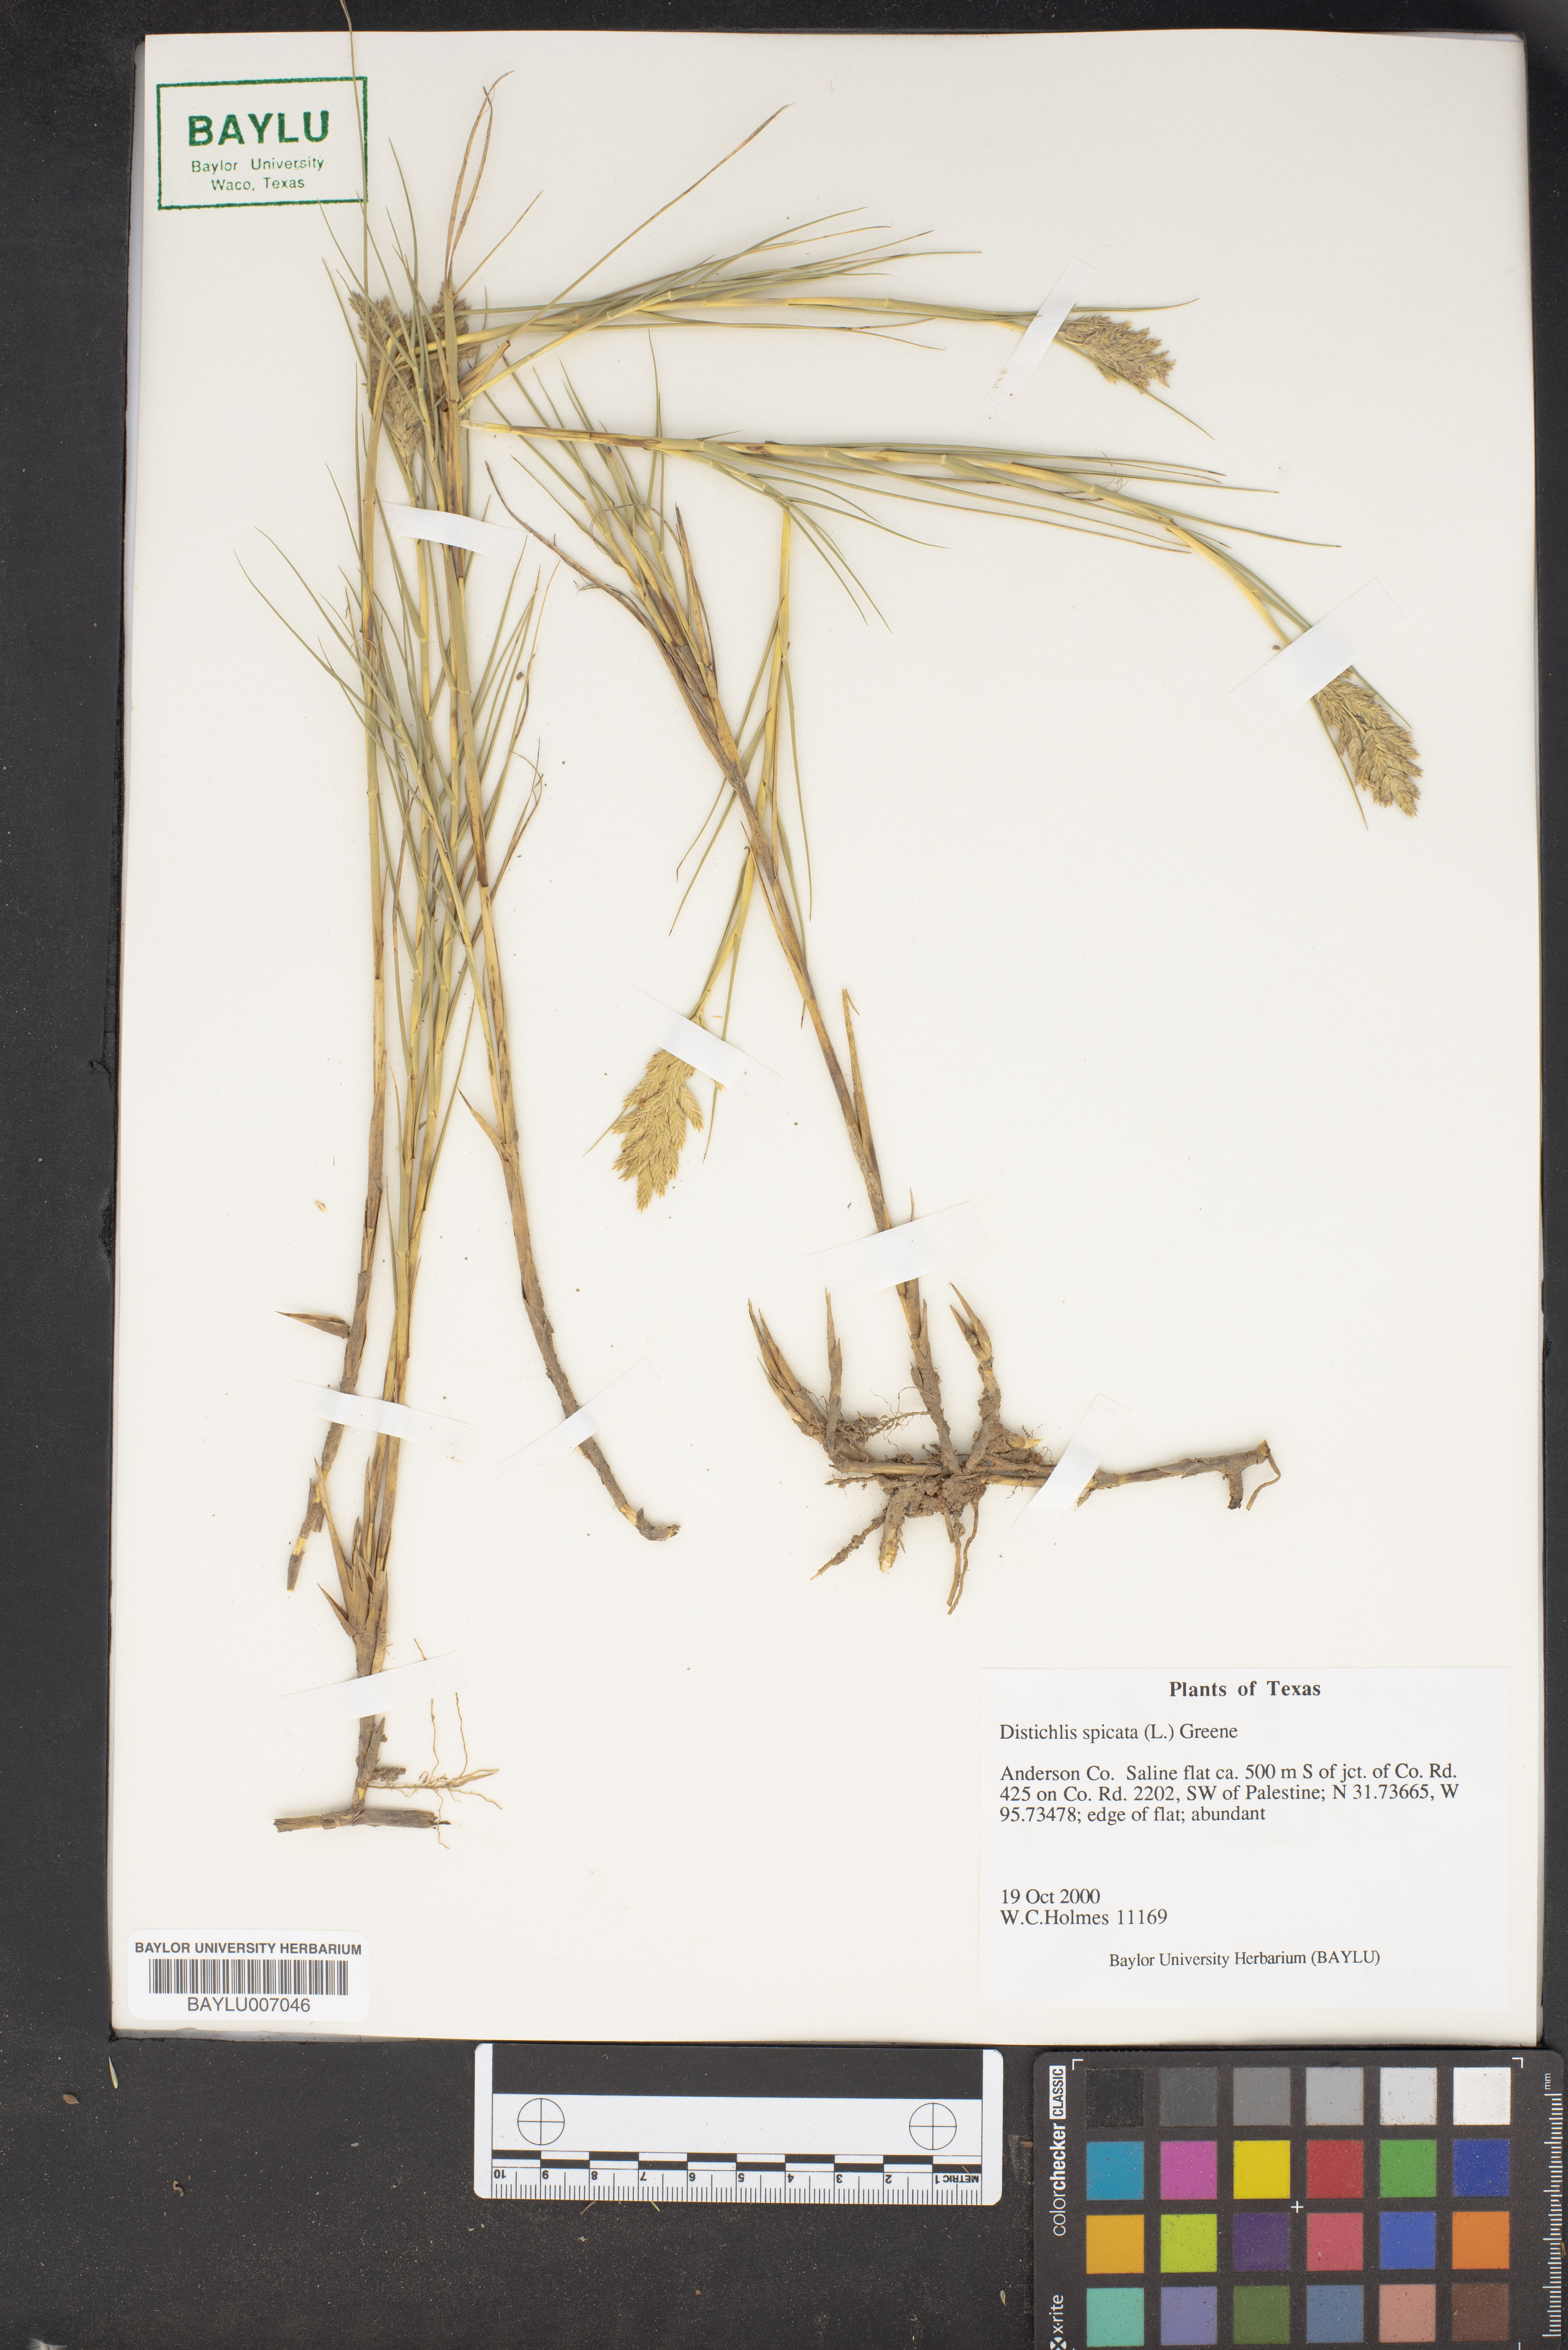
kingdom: Plantae
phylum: Tracheophyta
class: Liliopsida
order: Poales
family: Poaceae
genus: Distichlis
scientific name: Distichlis spicata
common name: Saltgrass
